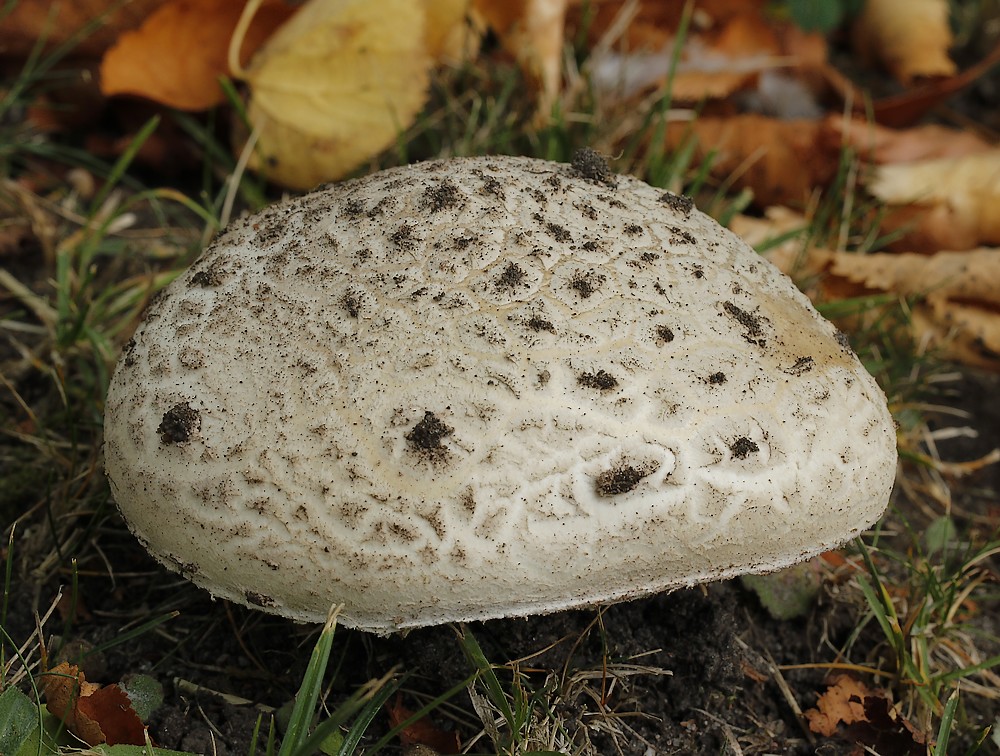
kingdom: Fungi
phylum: Basidiomycota
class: Agaricomycetes
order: Agaricales
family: Amanitaceae
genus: Amanita
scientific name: Amanita
